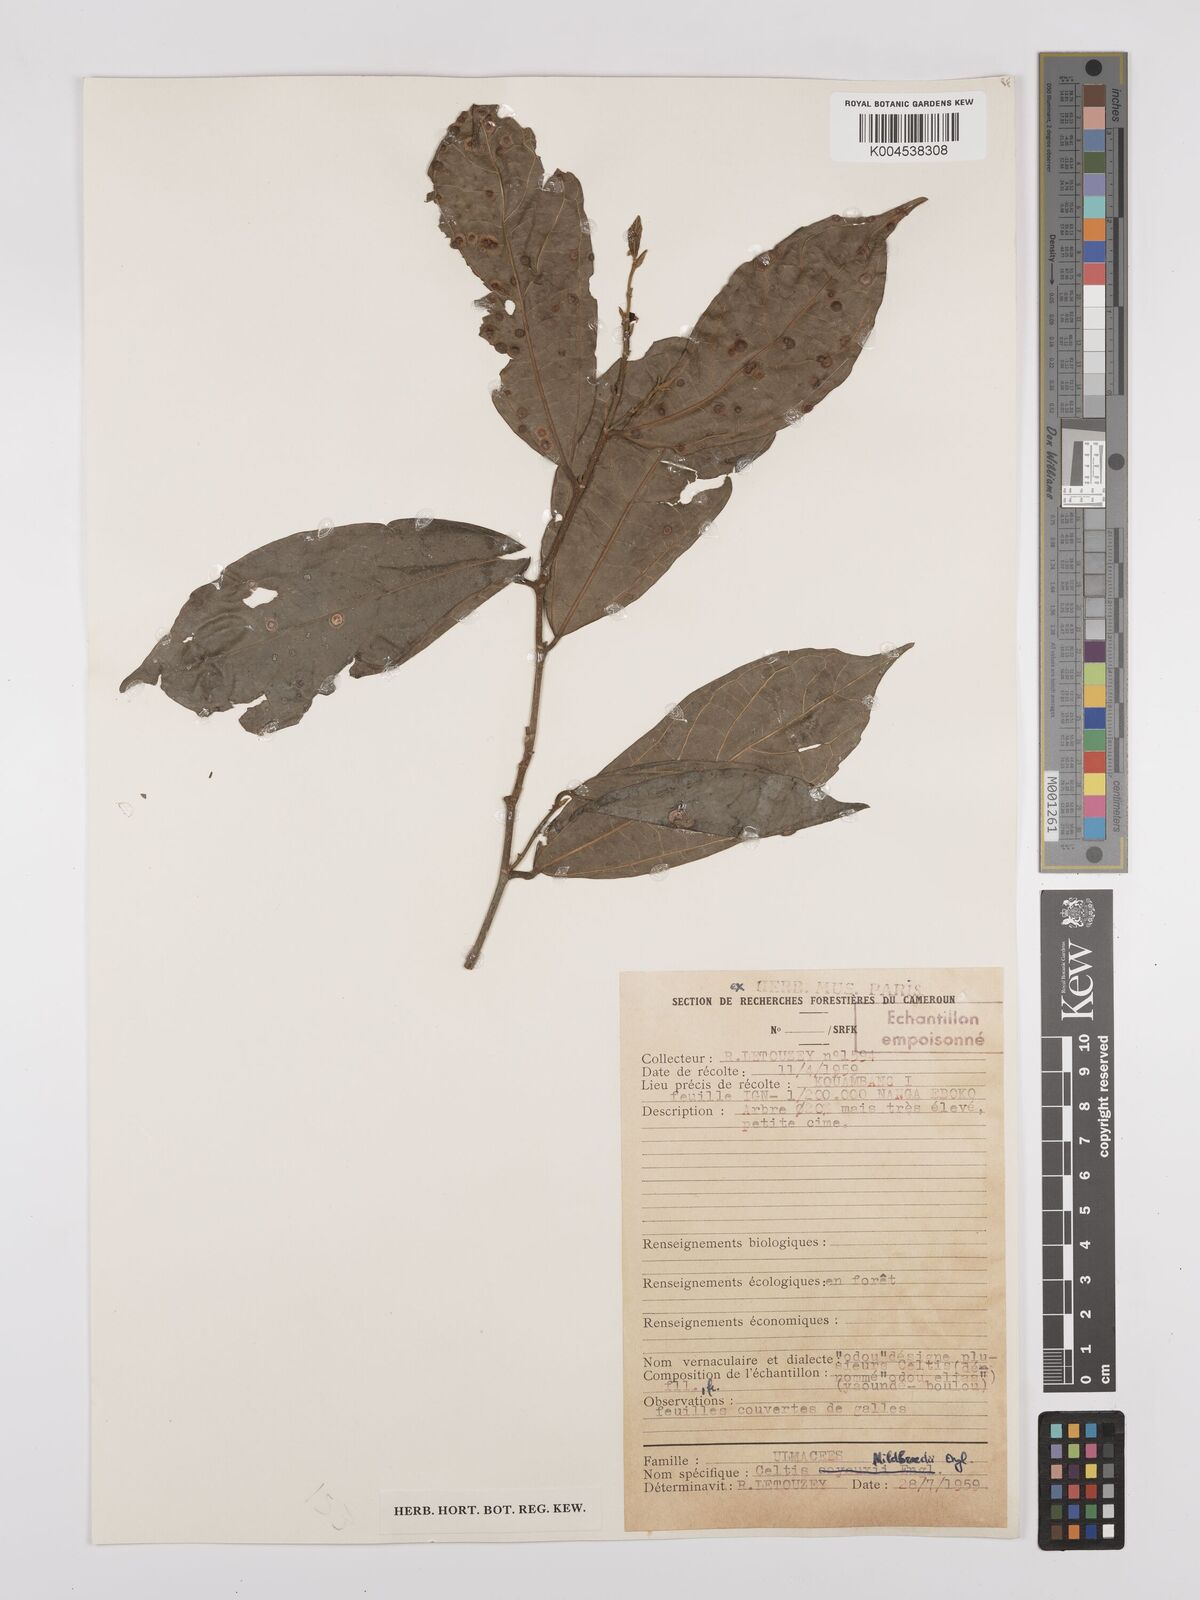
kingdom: Plantae
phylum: Tracheophyta
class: Magnoliopsida
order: Rosales
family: Cannabaceae
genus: Celtis
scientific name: Celtis mildbraedii
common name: Red-fruited stinkwood
